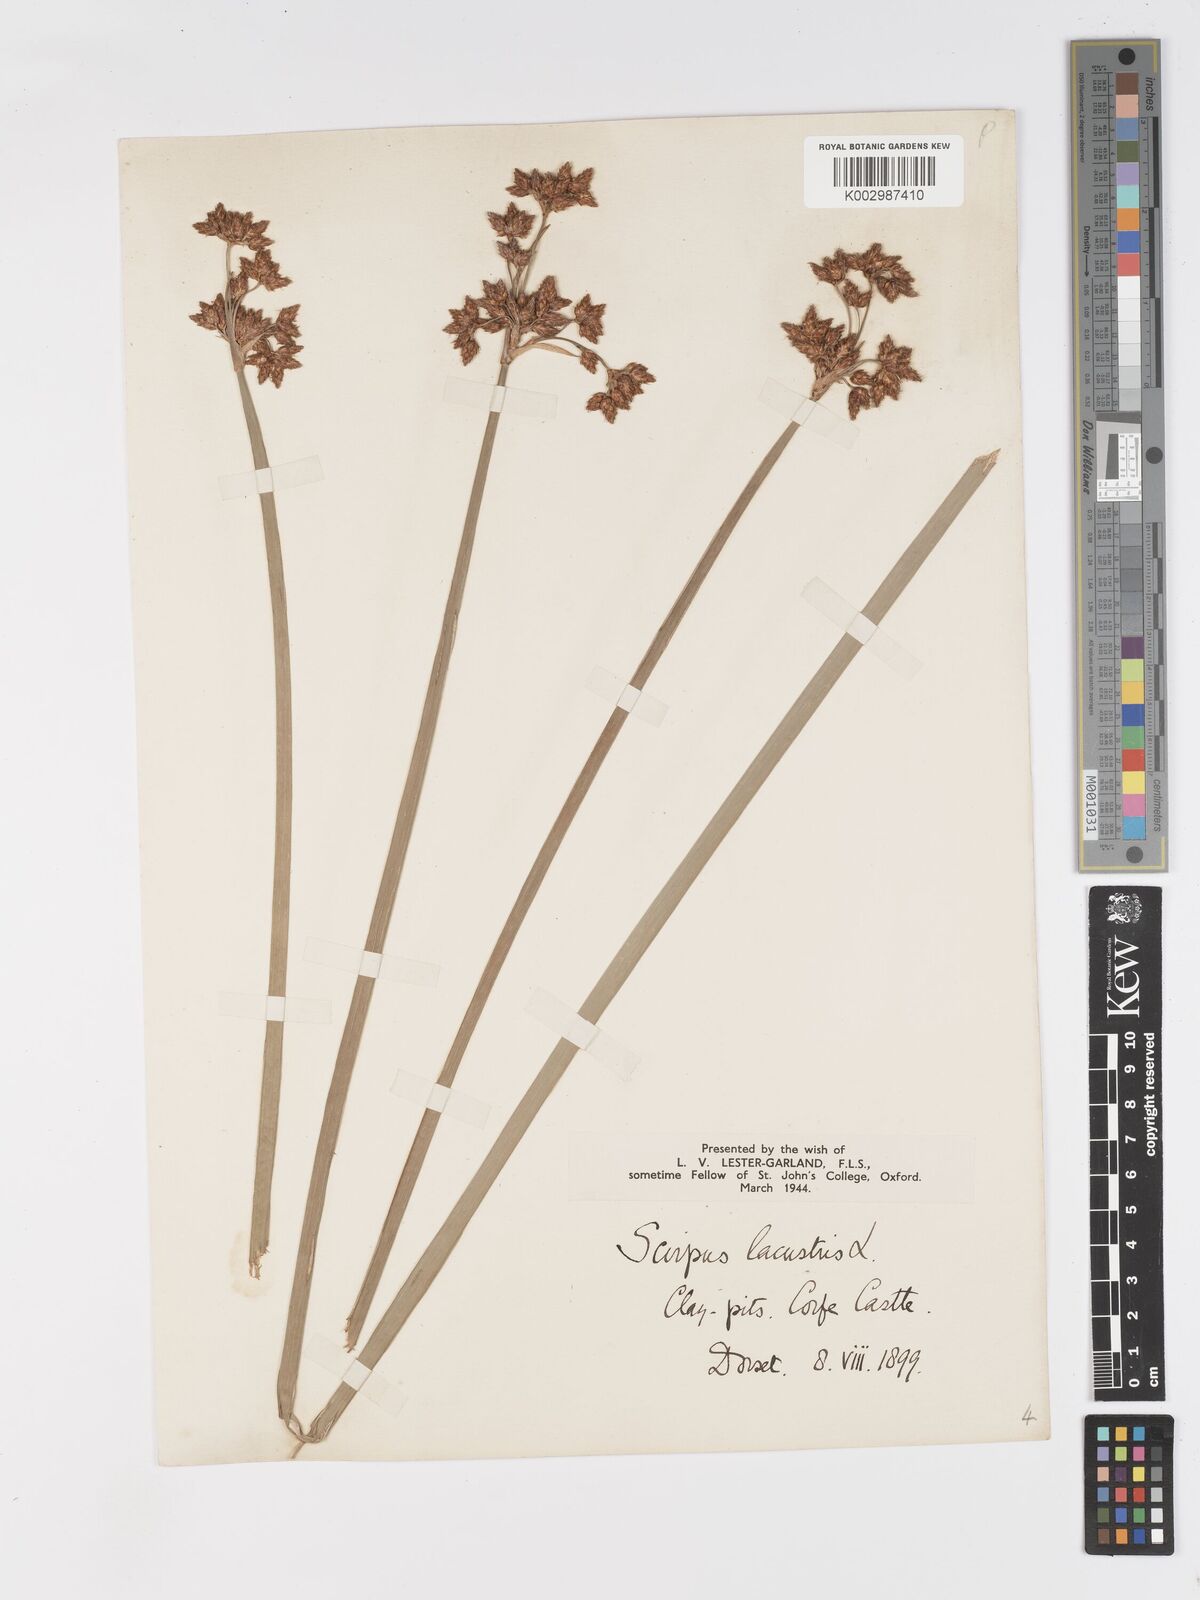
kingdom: Plantae
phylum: Tracheophyta
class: Liliopsida
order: Poales
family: Cyperaceae
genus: Schoenoplectus
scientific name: Schoenoplectus lacustris
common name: Common club-rush
